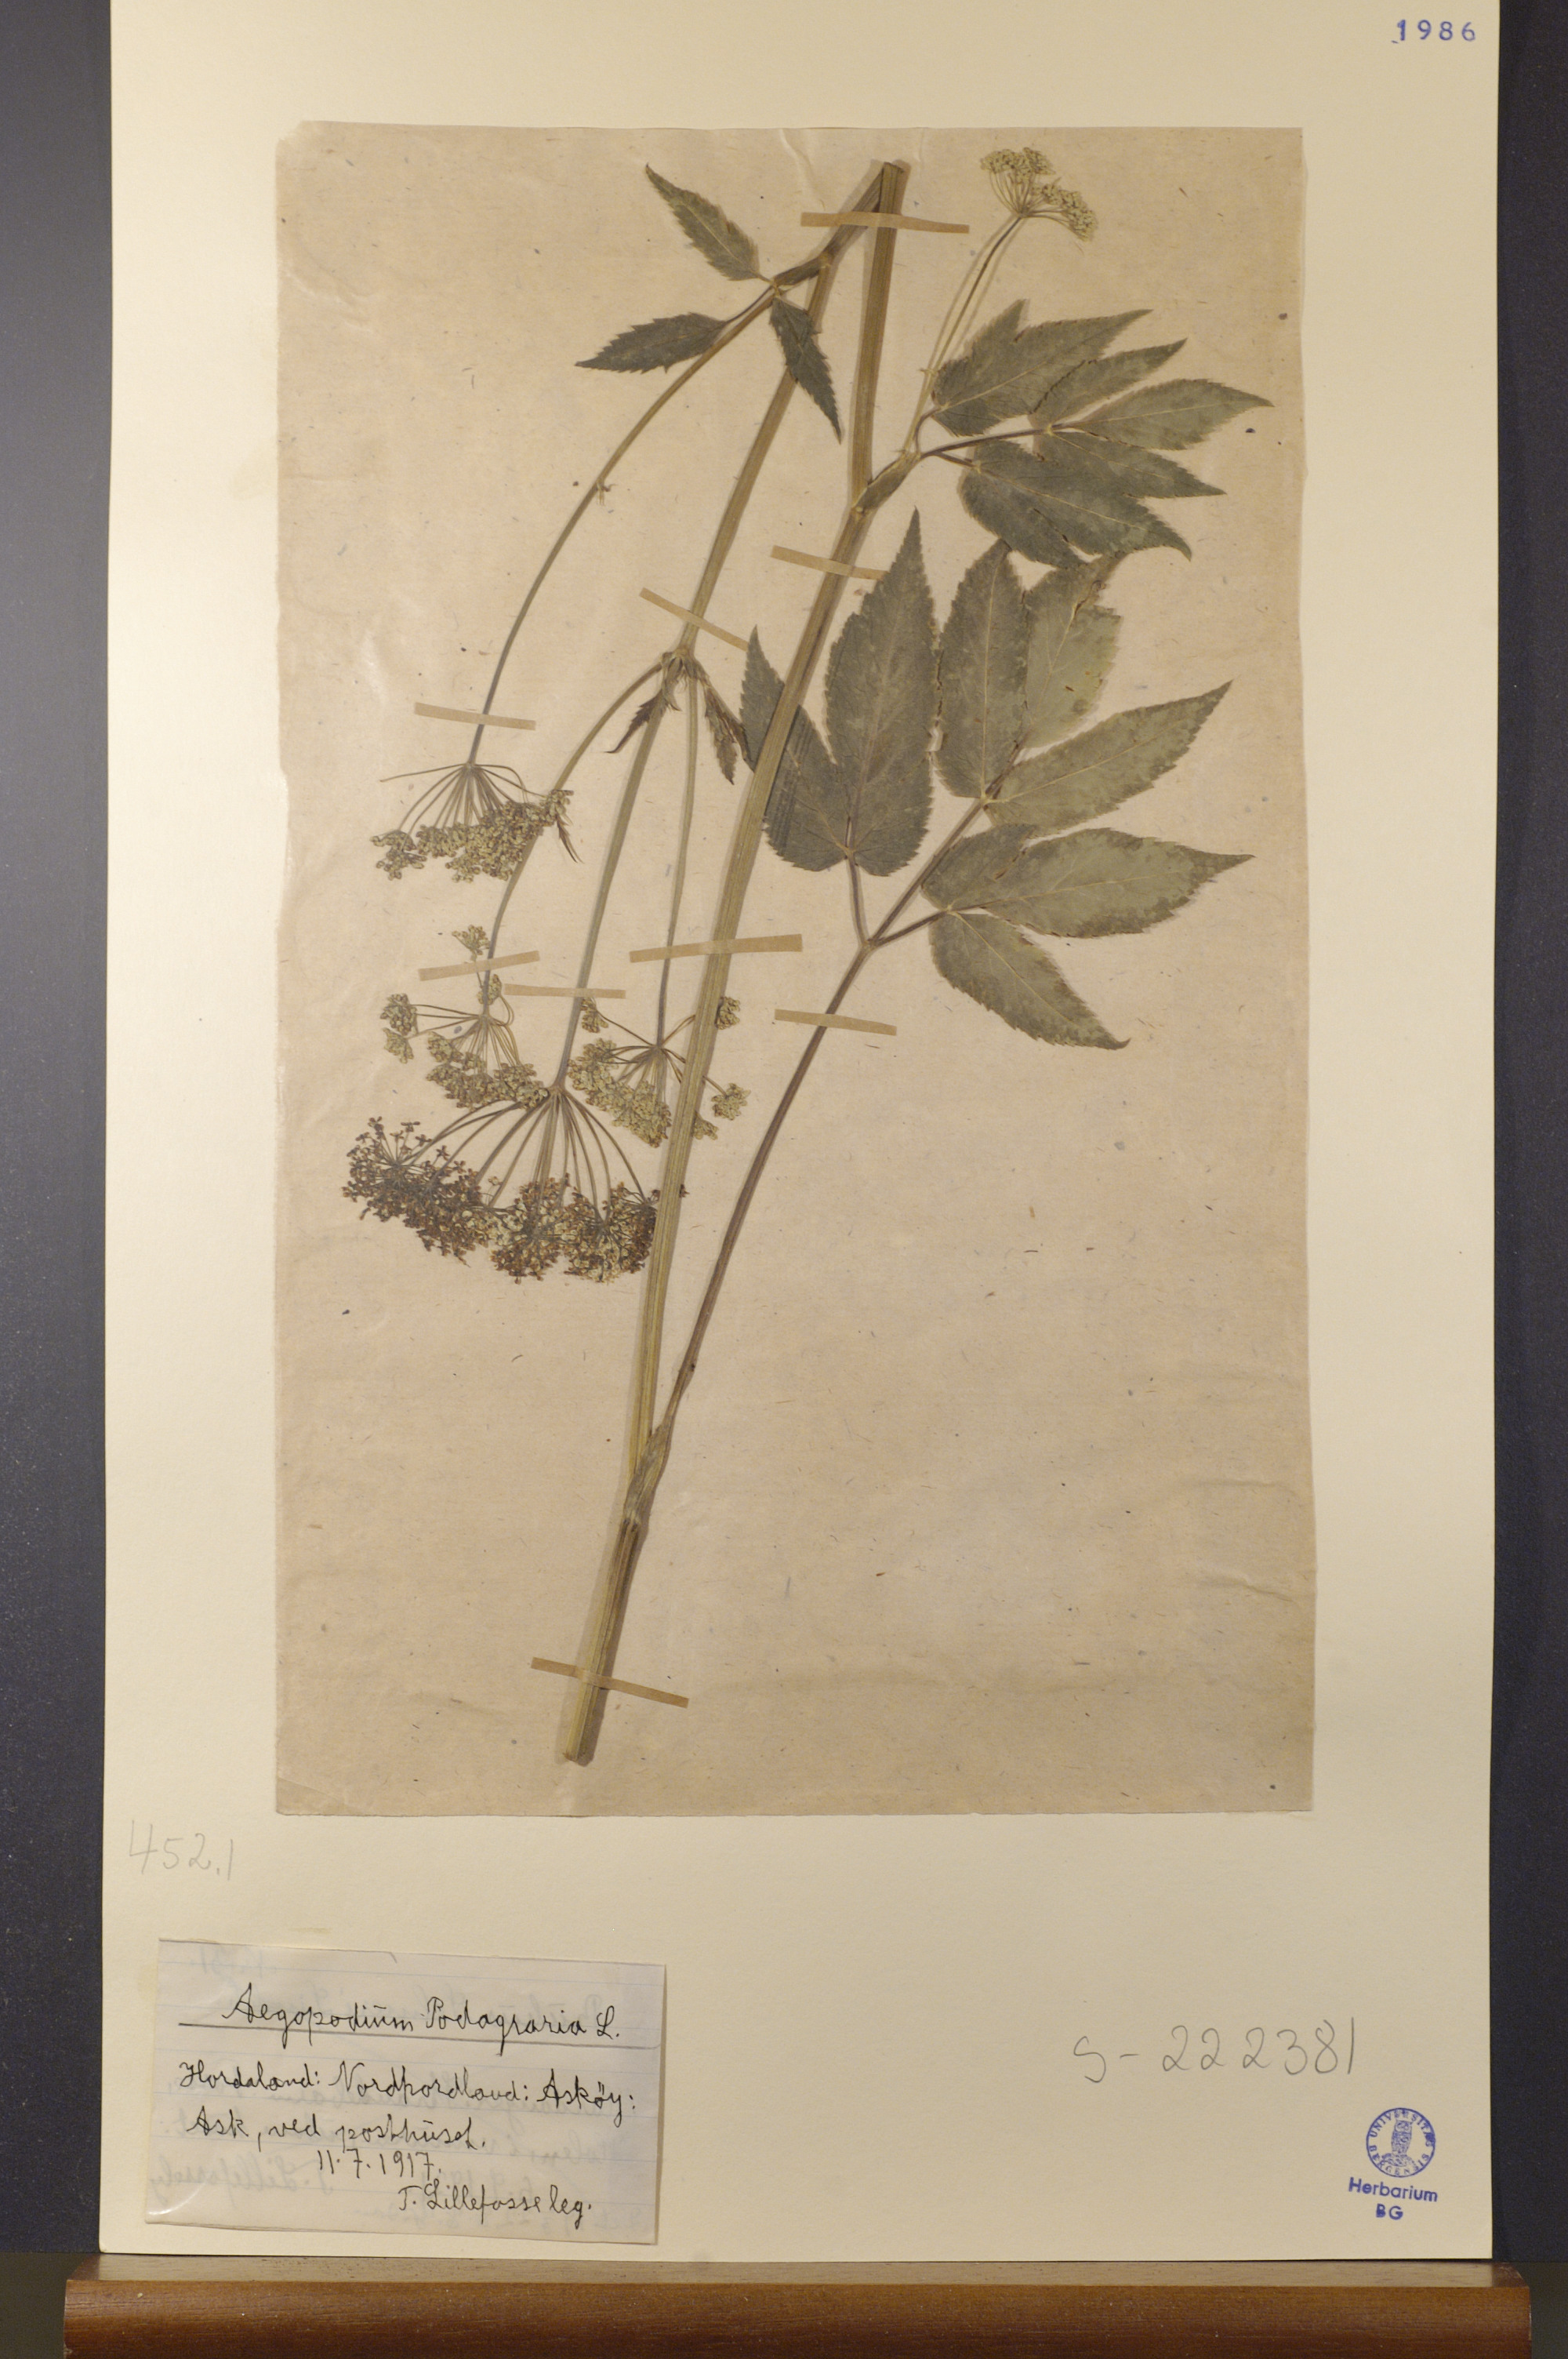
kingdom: Plantae
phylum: Tracheophyta
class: Magnoliopsida
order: Apiales
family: Apiaceae
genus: Aegopodium
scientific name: Aegopodium podagraria
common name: Ground-elder
